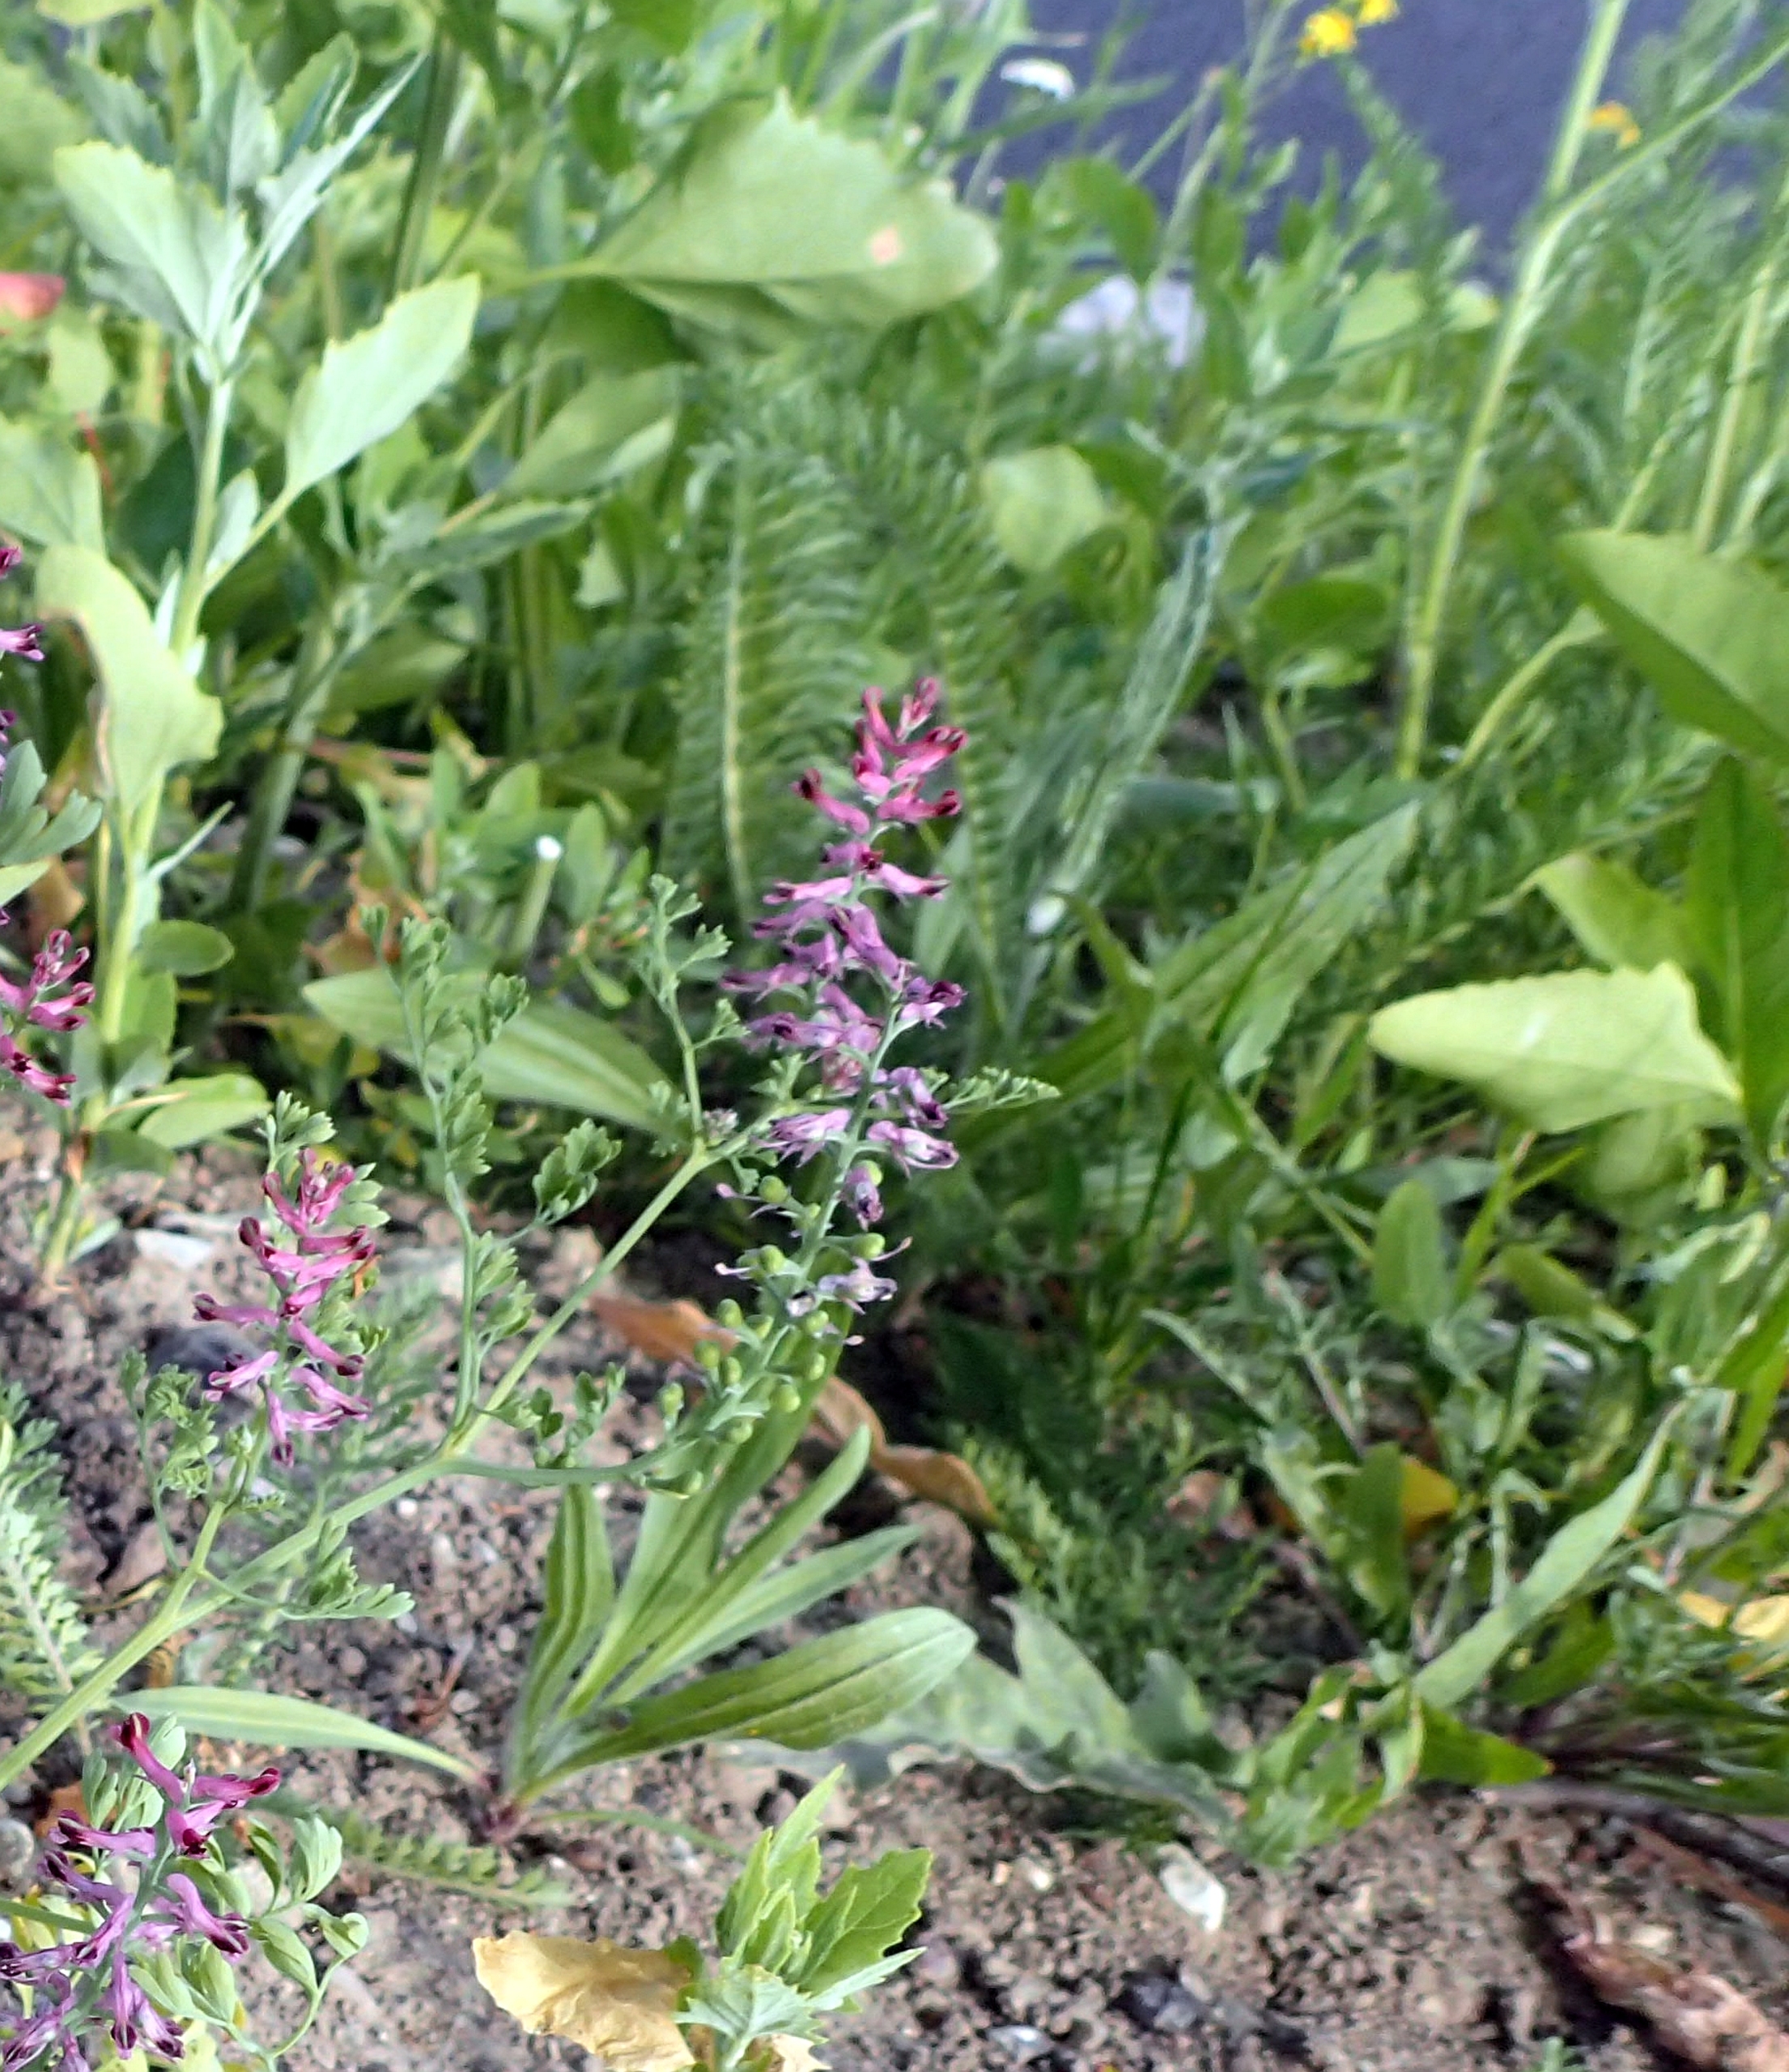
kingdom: Plantae
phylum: Tracheophyta
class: Magnoliopsida
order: Ranunculales
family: Papaveraceae
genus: Fumaria
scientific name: Fumaria officinalis
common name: Læge-jordrøg
